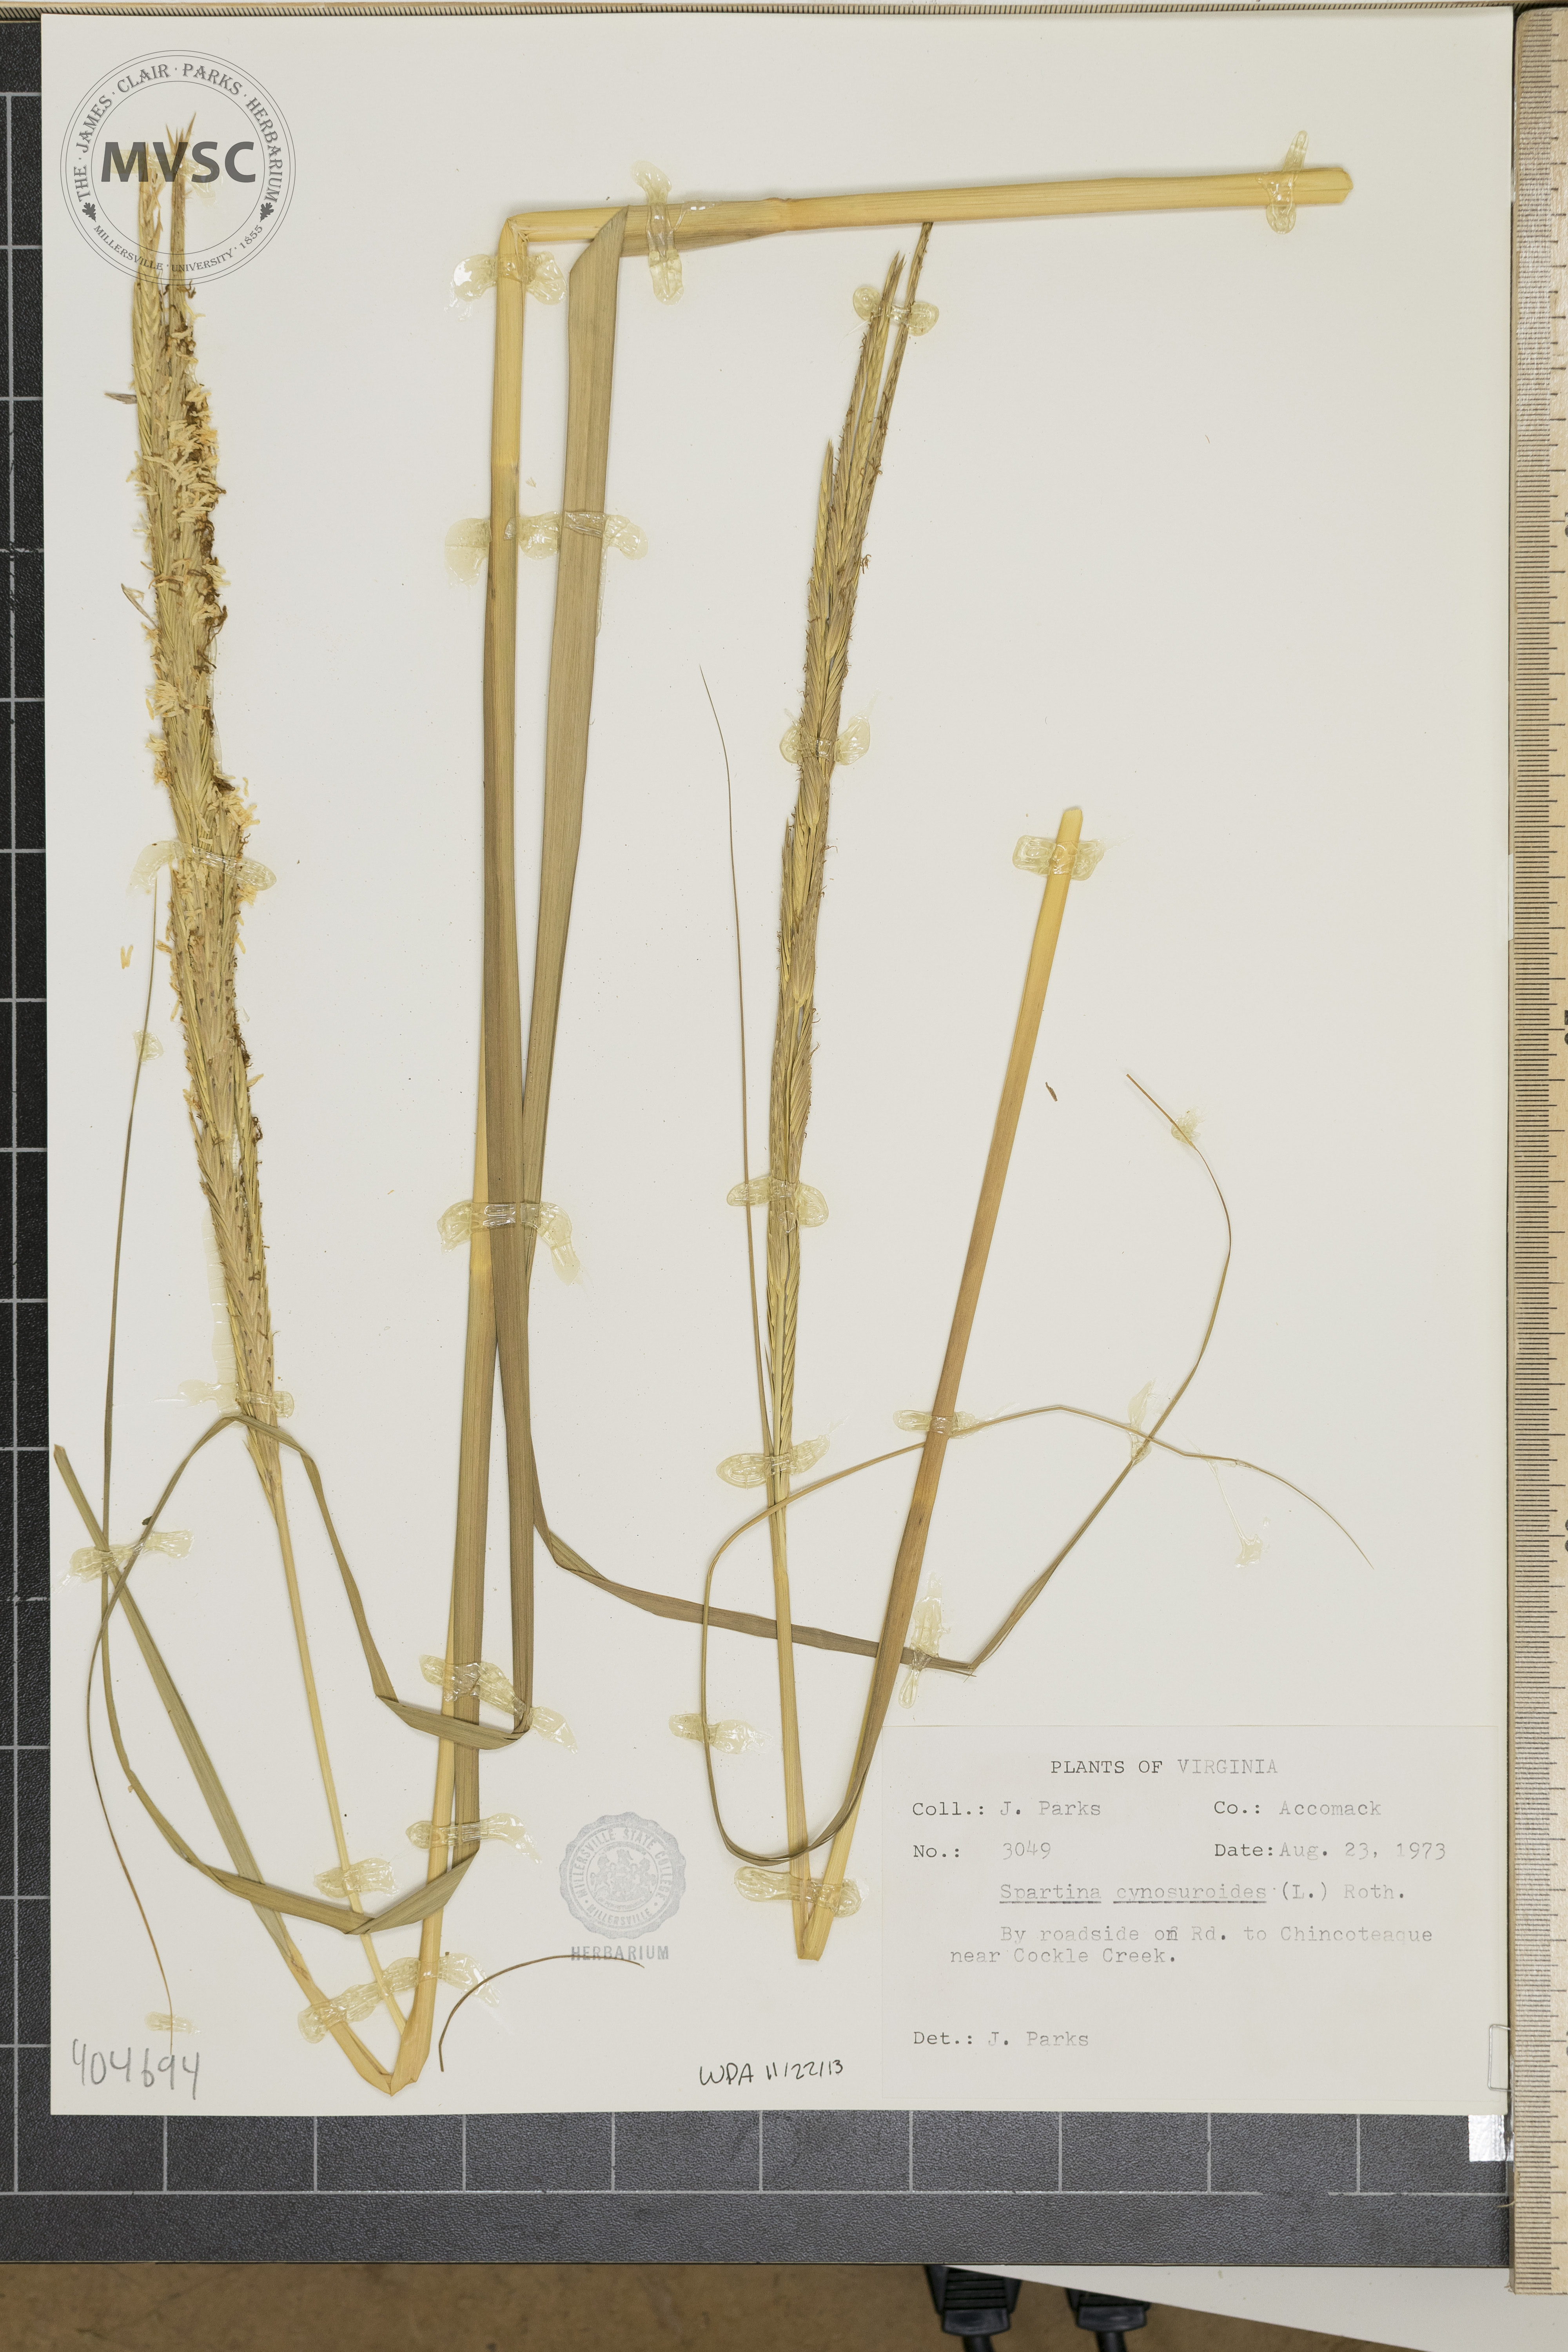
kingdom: Plantae
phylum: Tracheophyta
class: Liliopsida
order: Poales
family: Poaceae
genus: Sporobolus
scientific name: Sporobolus cynosuroides
